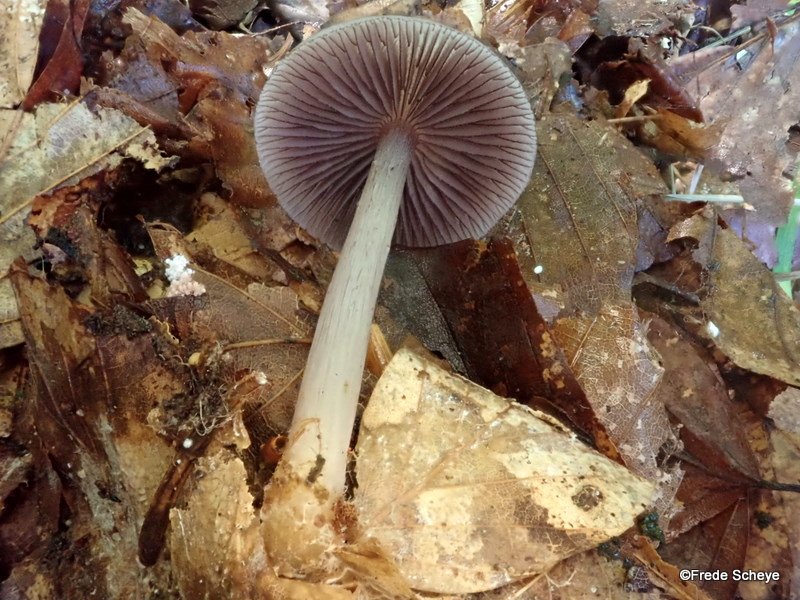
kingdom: Fungi
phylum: Basidiomycota
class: Agaricomycetes
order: Agaricales
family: Mycenaceae
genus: Mycena
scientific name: Mycena pelianthina
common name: mørkbladet huesvamp
